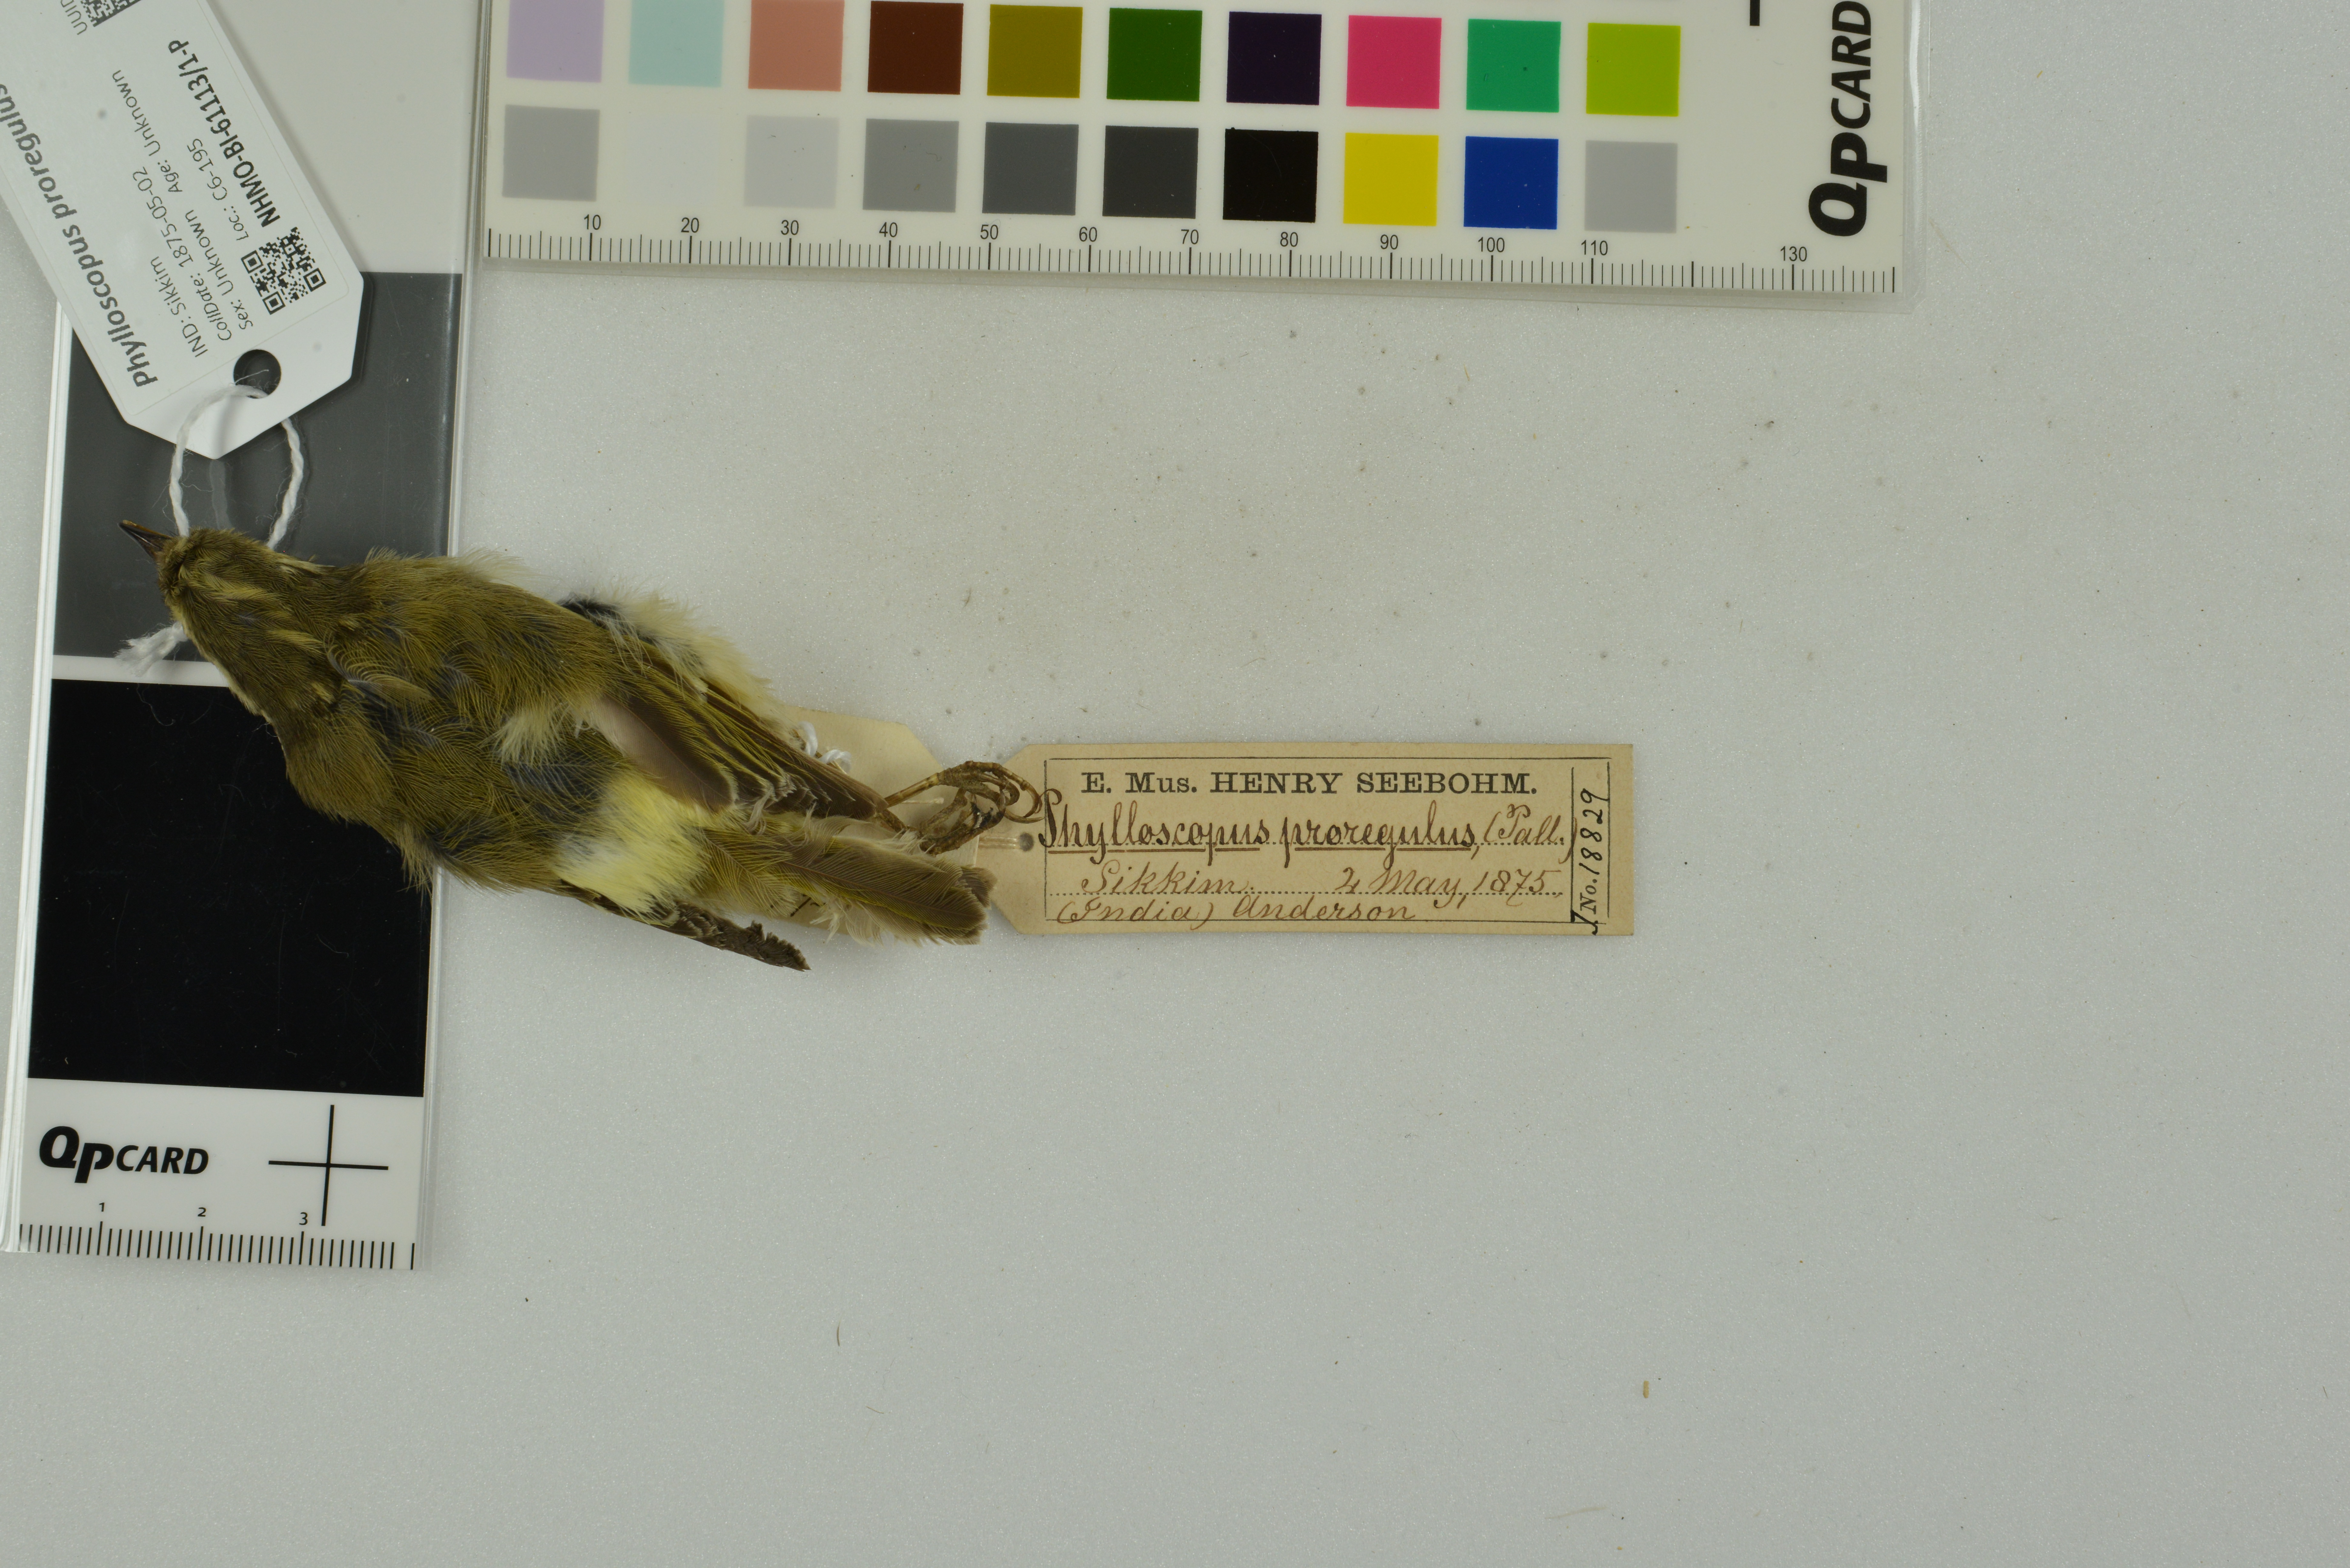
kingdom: Animalia
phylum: Chordata
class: Aves
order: Passeriformes
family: Phylloscopidae
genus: Phylloscopus
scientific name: Phylloscopus proregulus
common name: Pallas's leaf warbler
